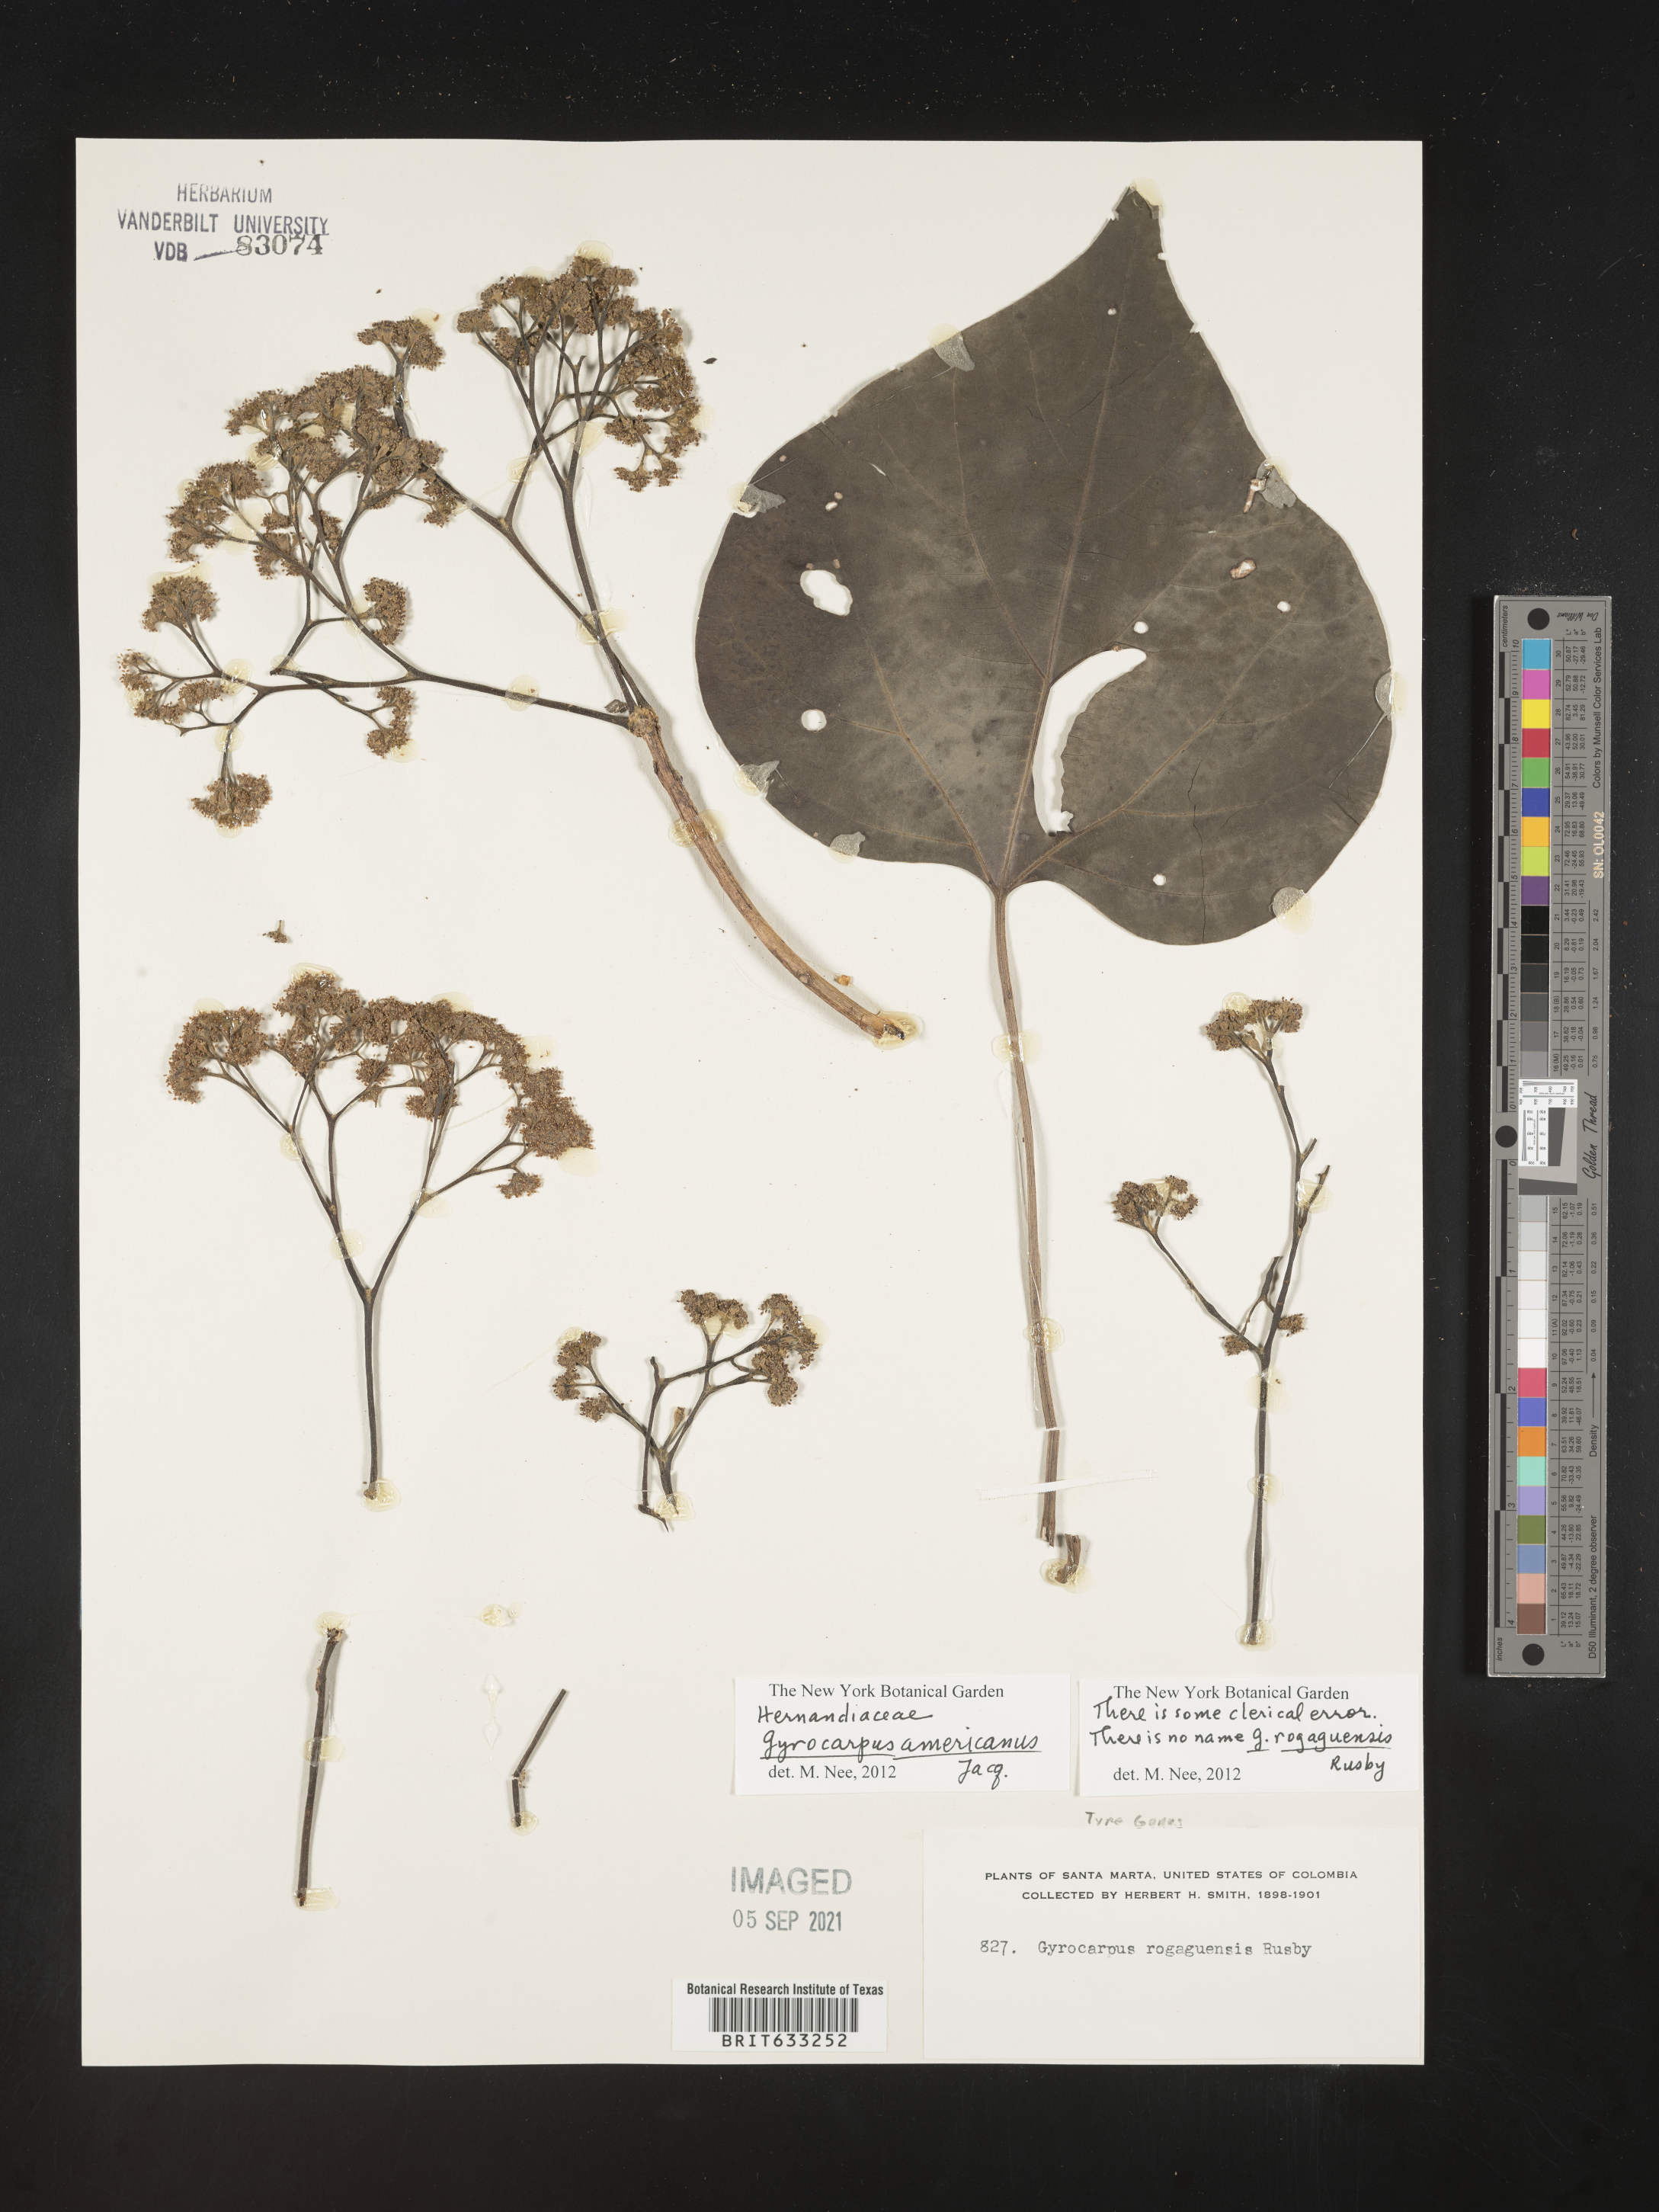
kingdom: Plantae
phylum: Tracheophyta
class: Magnoliopsida
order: Laurales
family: Hernandiaceae
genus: Gyrocarpus
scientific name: Gyrocarpus
